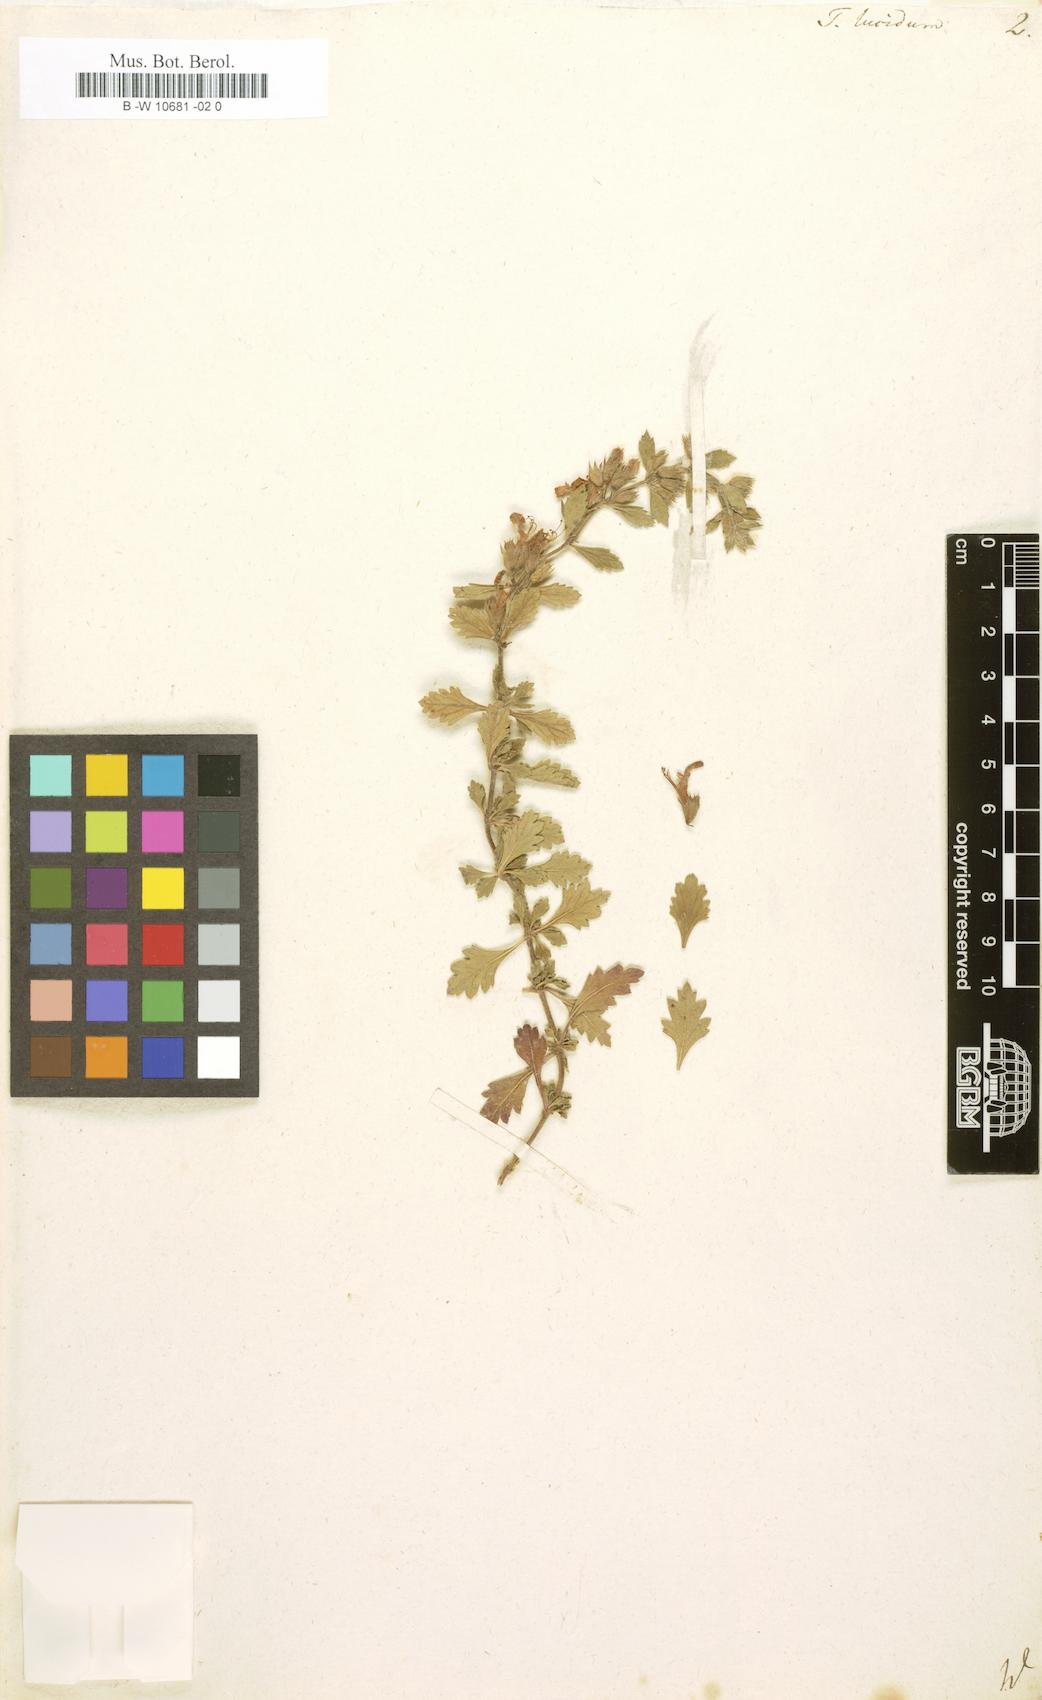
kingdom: Plantae
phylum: Tracheophyta
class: Magnoliopsida
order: Lamiales
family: Lamiaceae
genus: Teucrium
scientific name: Teucrium lucidum
